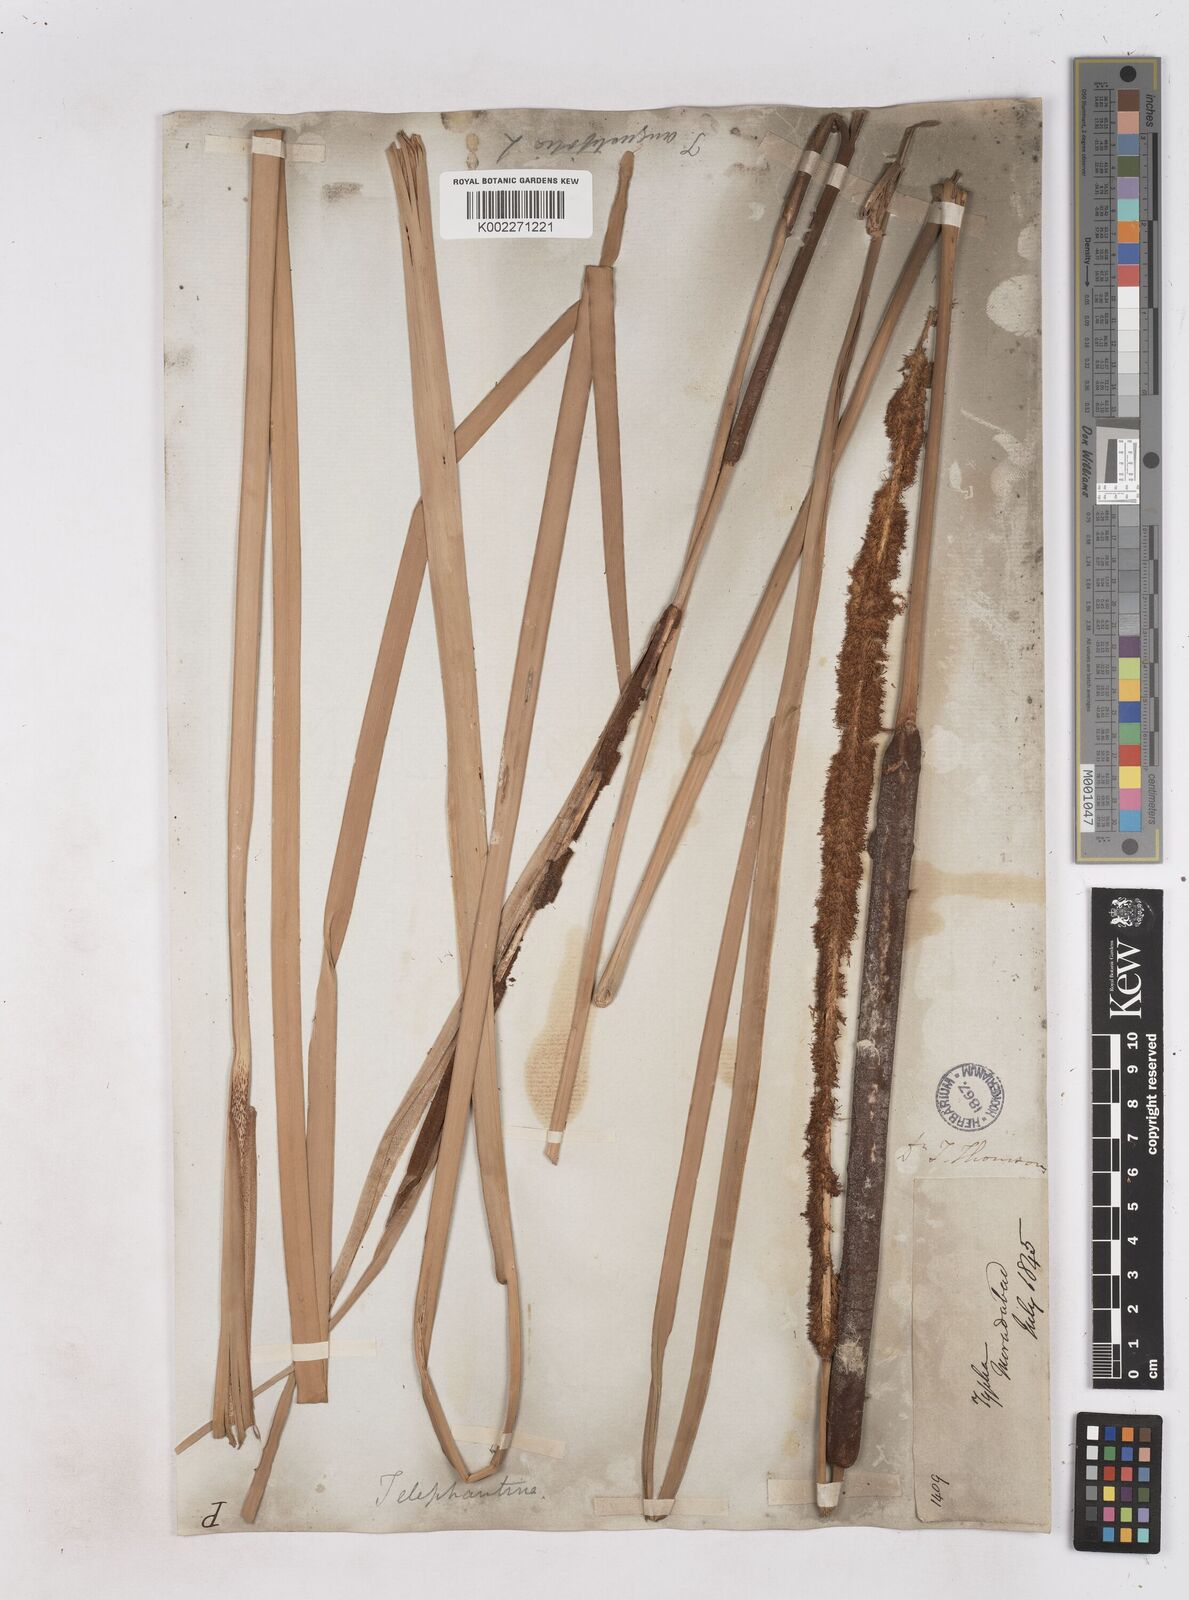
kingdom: Plantae
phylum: Tracheophyta
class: Liliopsida
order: Poales
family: Typhaceae
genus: Typha
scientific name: Typha elephantina
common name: Indian reed-grass
